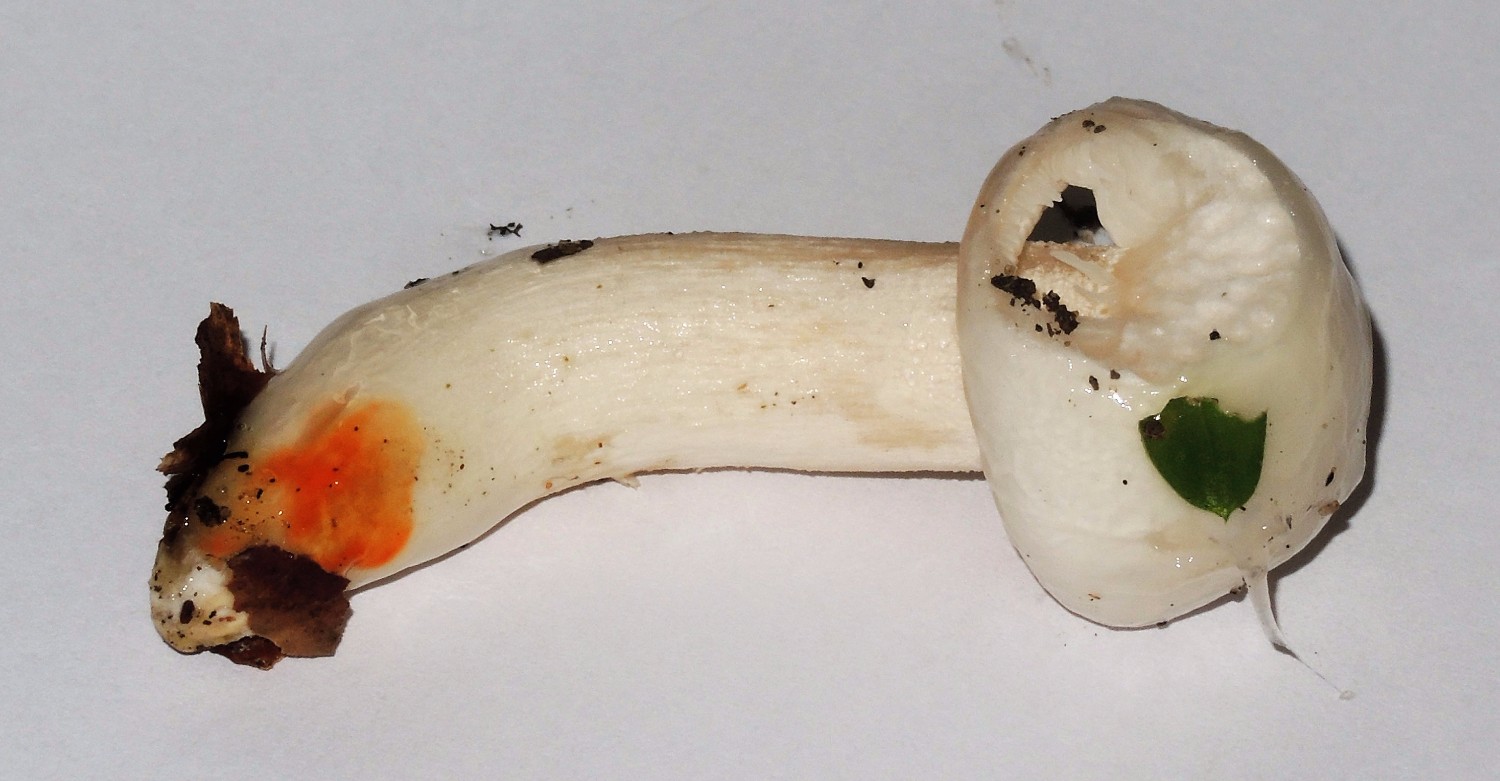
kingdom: Fungi
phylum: Basidiomycota
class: Agaricomycetes
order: Agaricales
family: Hygrophoraceae
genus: Hygrophorus
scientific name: Hygrophorus eburneus
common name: elfenbens-sneglehat
